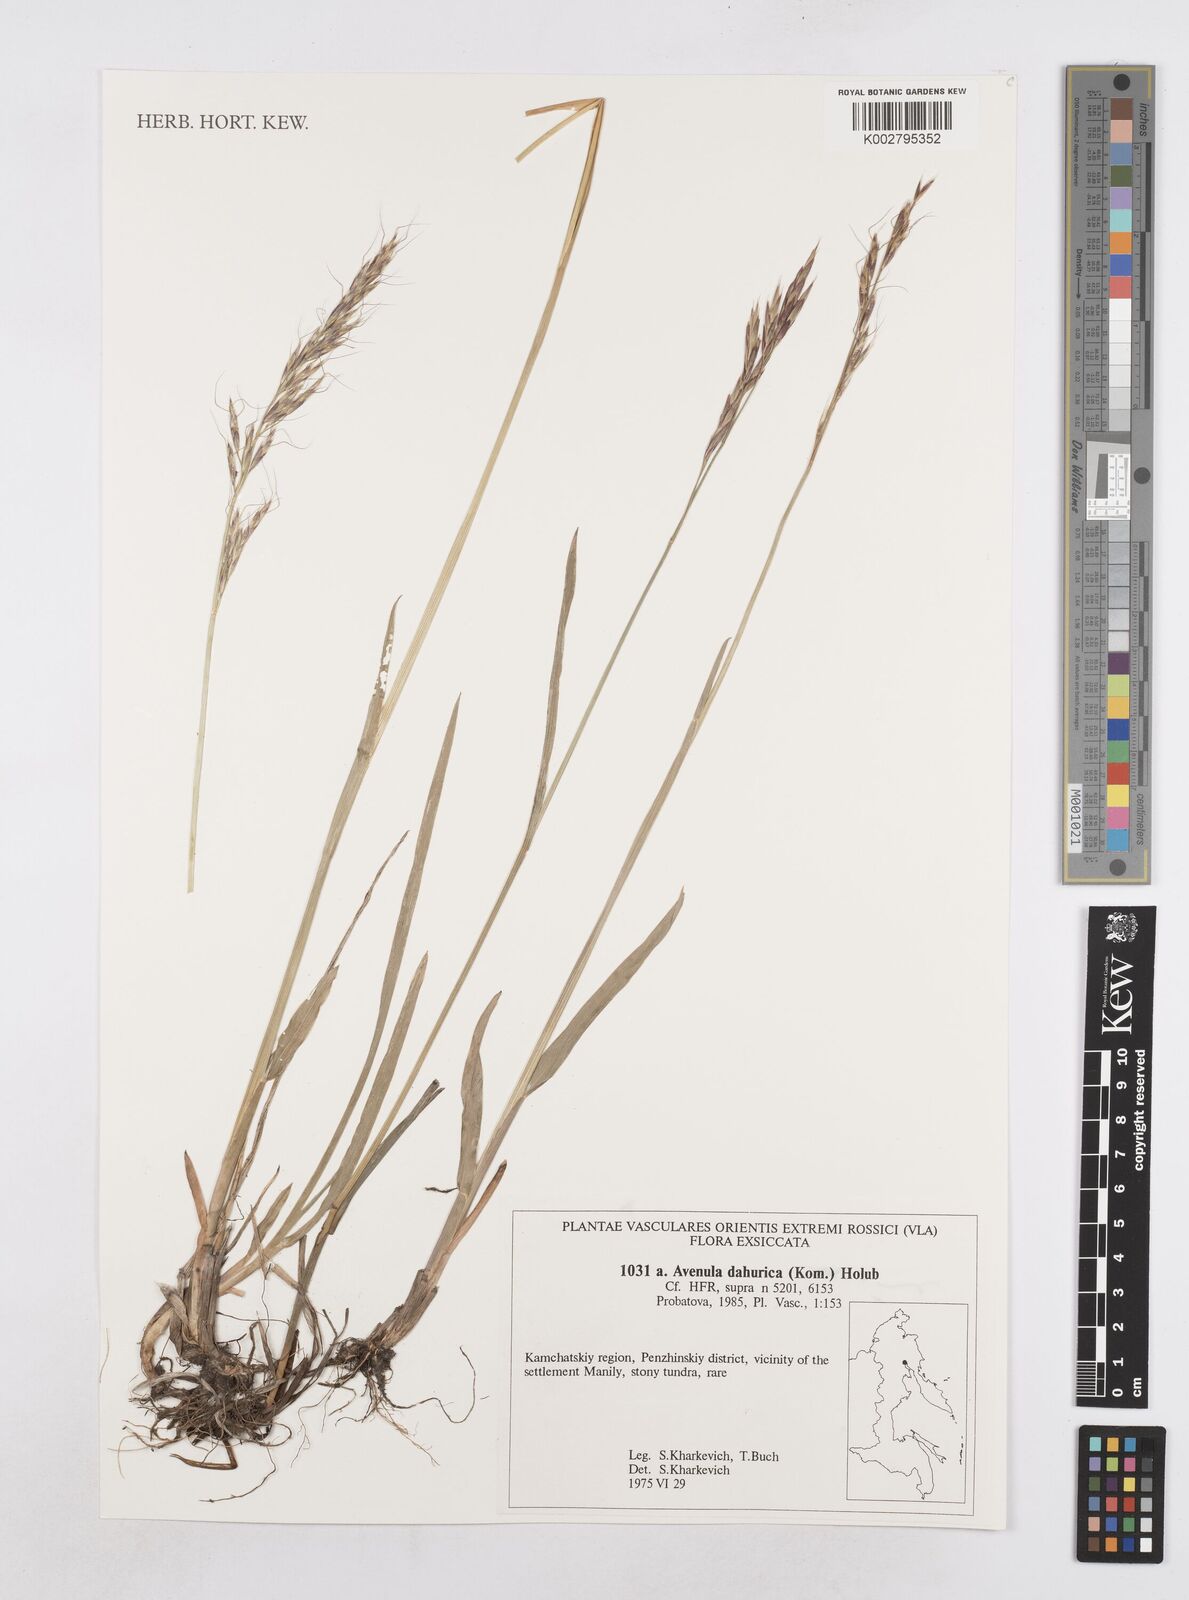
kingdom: Plantae
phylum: Tracheophyta
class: Liliopsida
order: Poales
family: Poaceae
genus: Helictochloa
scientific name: Helictochloa dahurica
